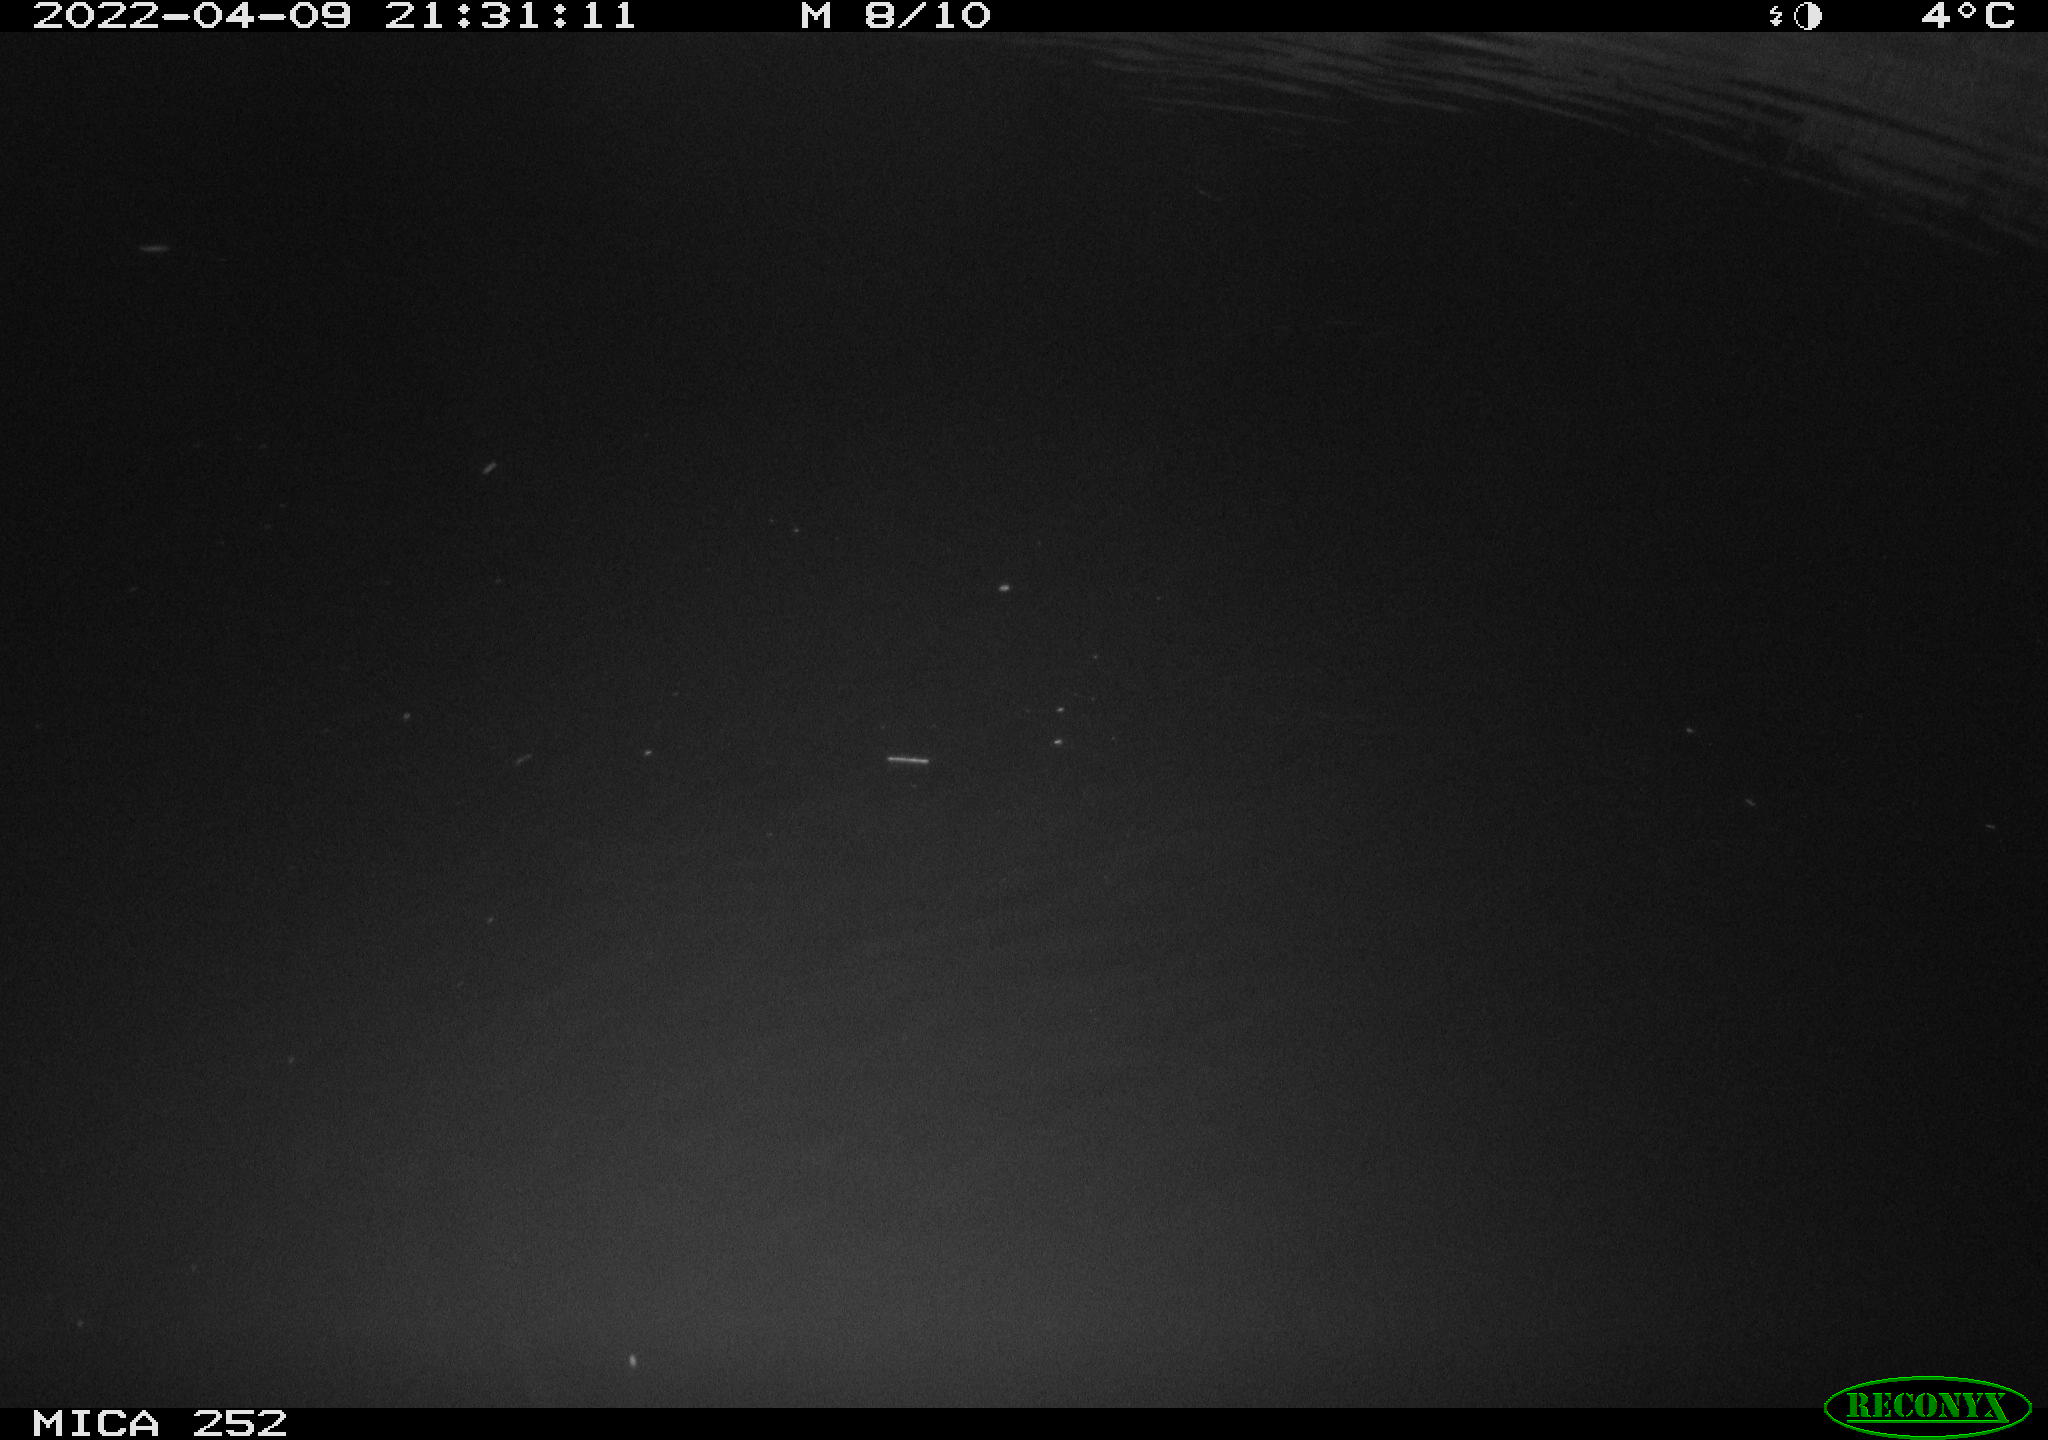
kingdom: Animalia
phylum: Chordata
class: Mammalia
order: Rodentia
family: Castoridae
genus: Castor
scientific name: Castor fiber
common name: Eurasian beaver
